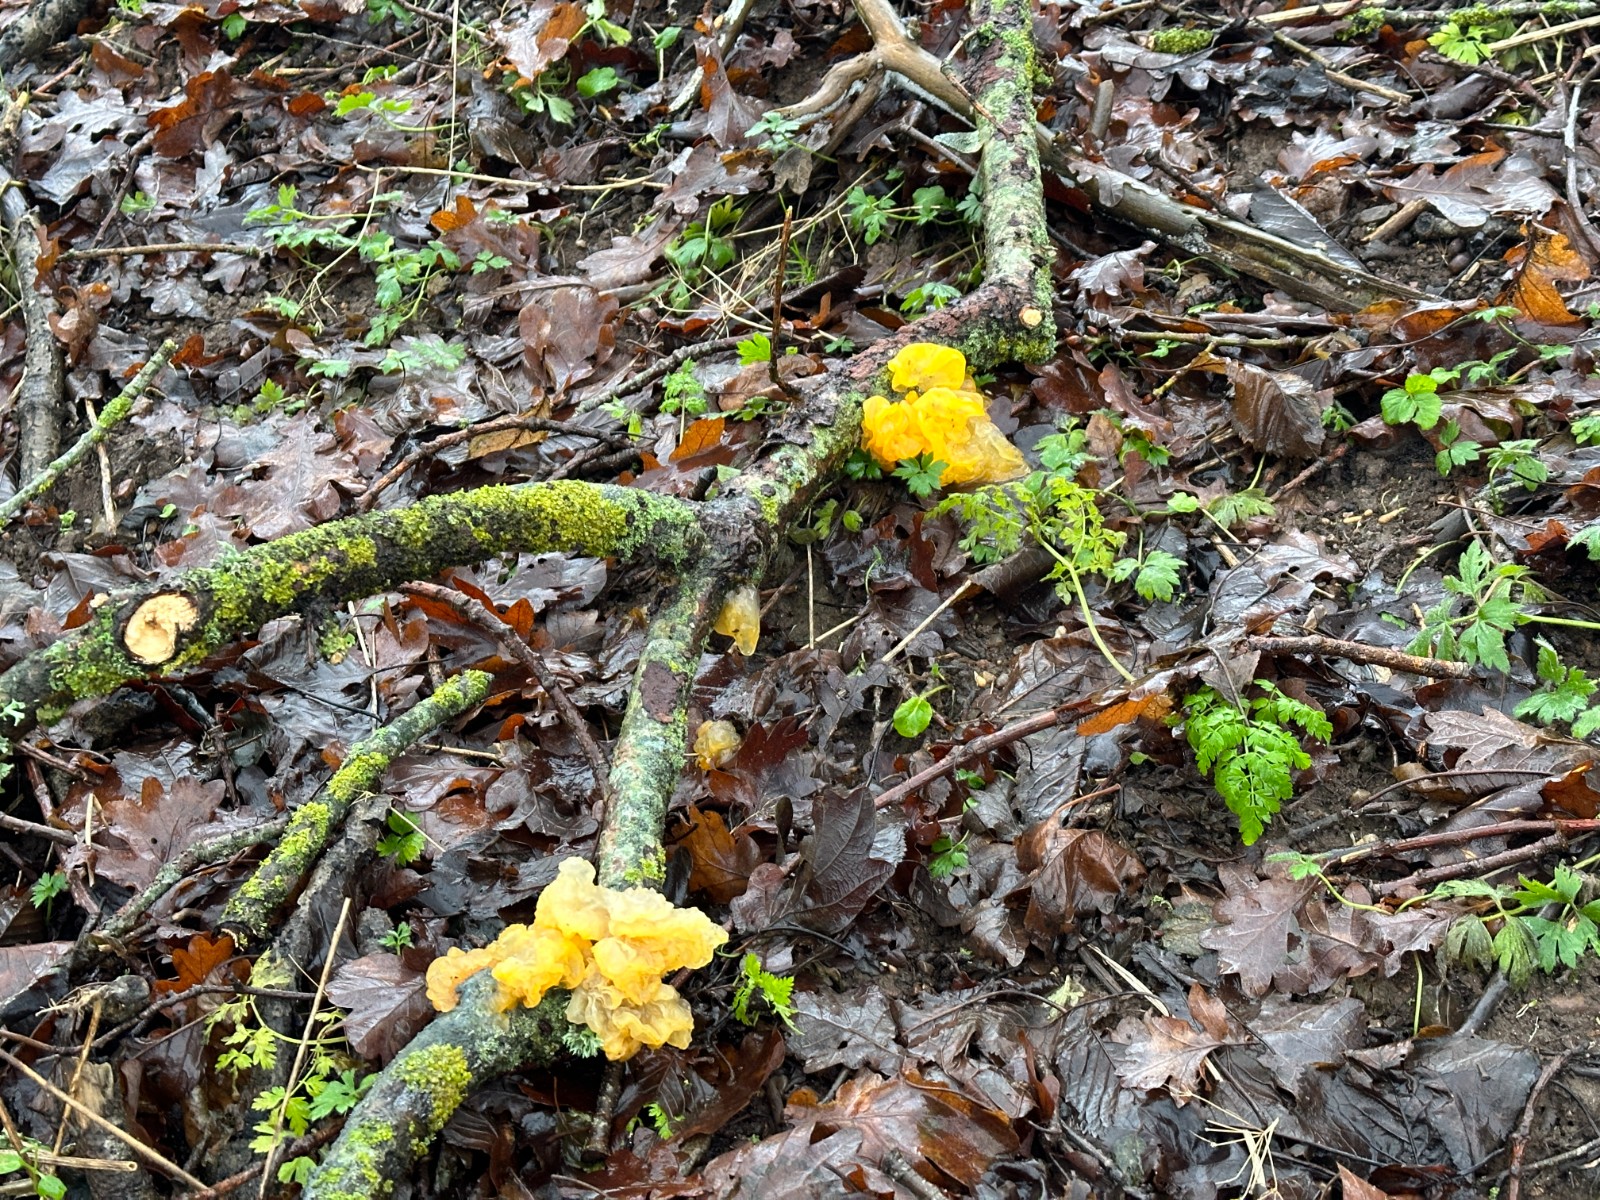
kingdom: Fungi
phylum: Basidiomycota
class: Tremellomycetes
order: Tremellales
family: Tremellaceae
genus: Tremella
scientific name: Tremella mesenterica
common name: gul bævresvamp
